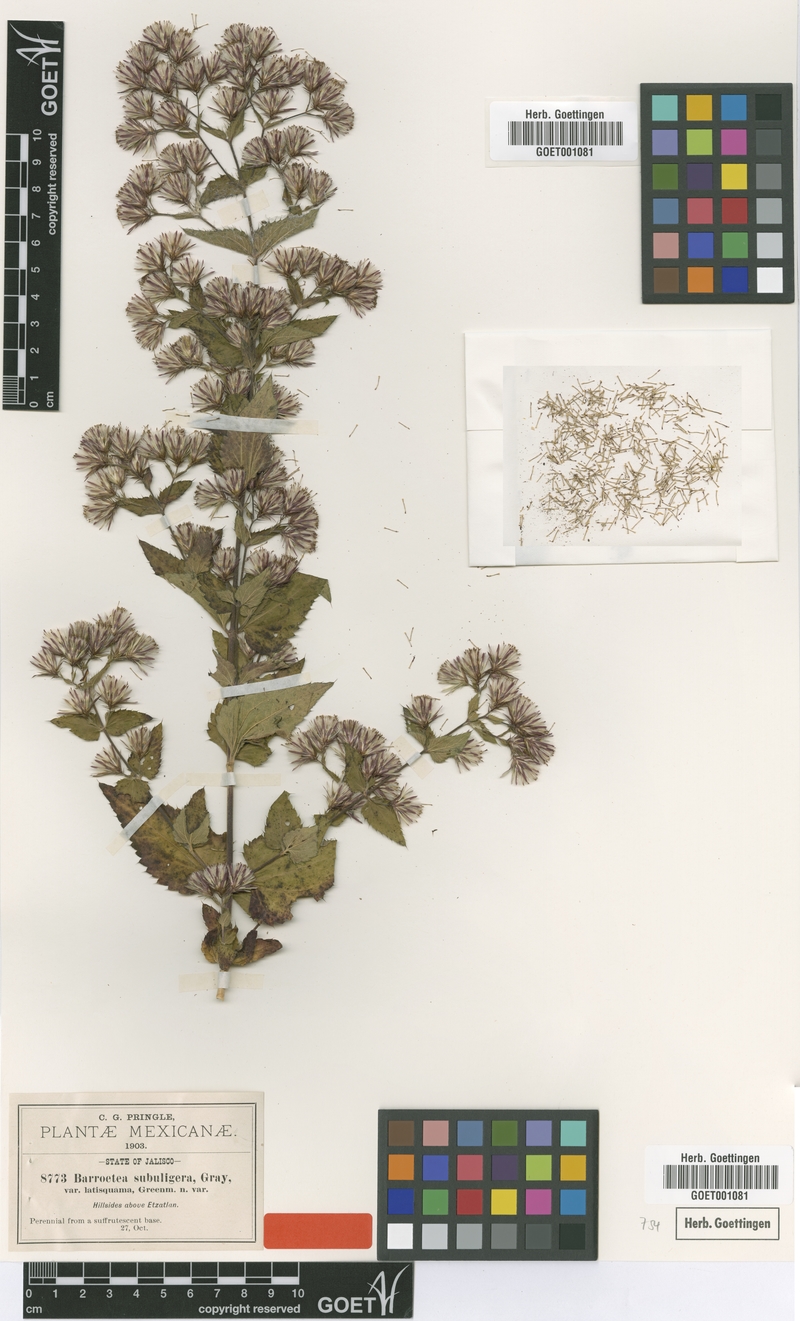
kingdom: Plantae
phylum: Tracheophyta
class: Magnoliopsida
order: Asterales
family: Asteraceae
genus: Brickellia
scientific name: Brickellia subuligera
